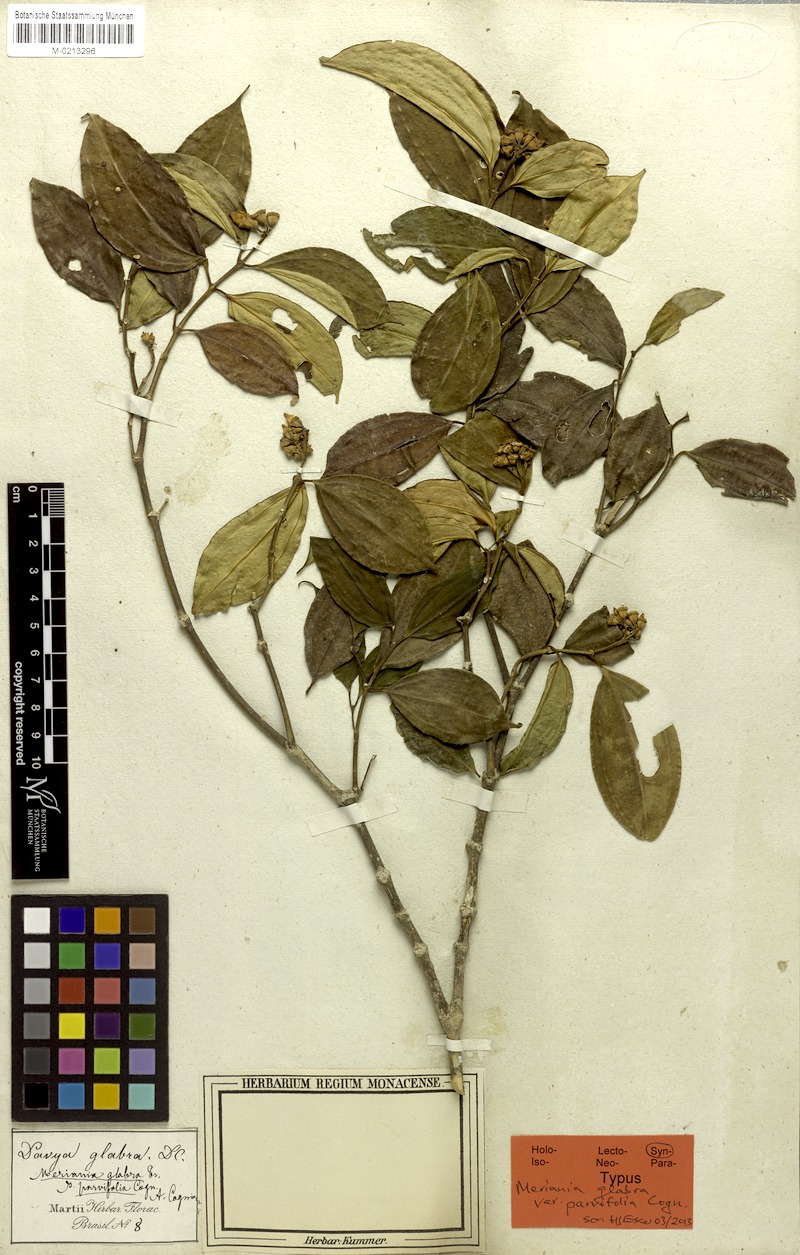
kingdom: Plantae
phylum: Tracheophyta
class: Magnoliopsida
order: Myrtales
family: Melastomataceae
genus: Meriania
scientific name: Meriania glabra
